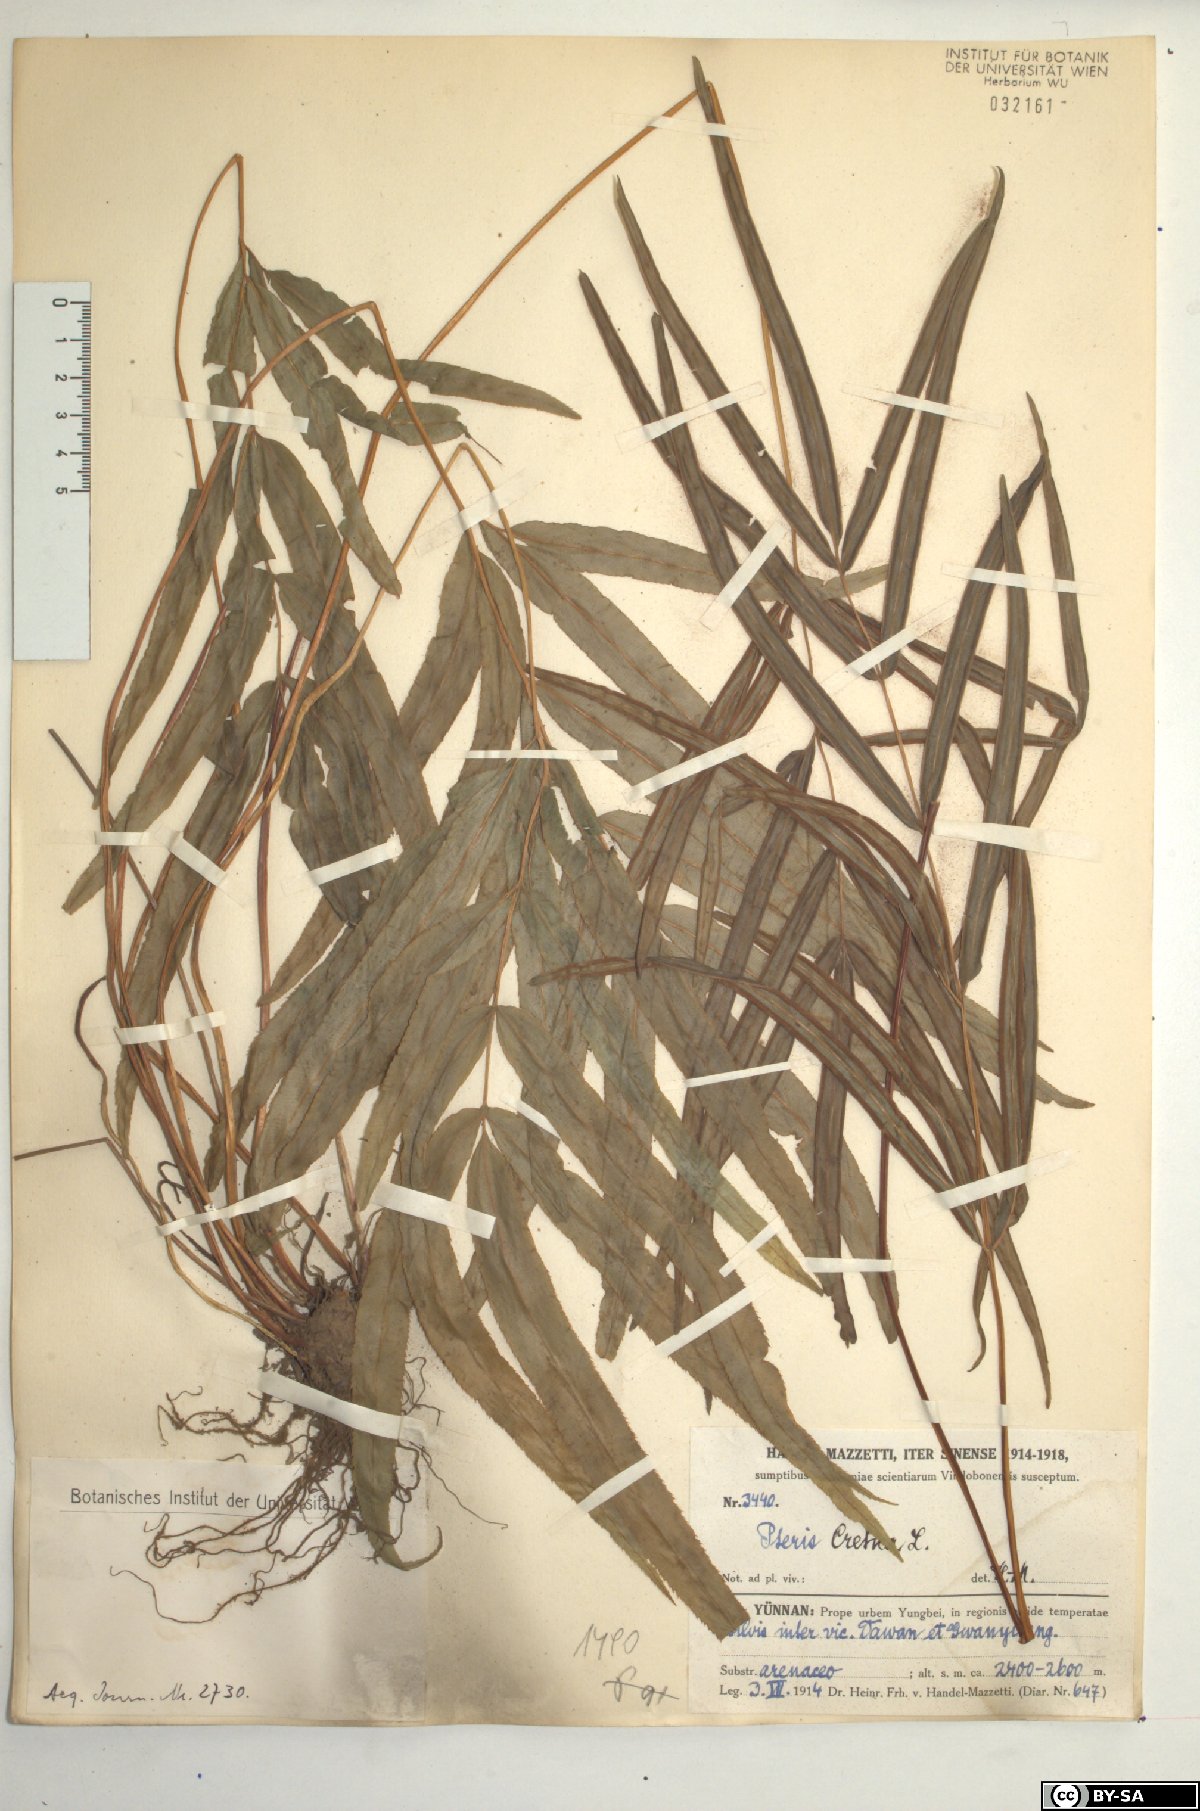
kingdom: Plantae
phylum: Tracheophyta
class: Polypodiopsida
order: Polypodiales
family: Pteridaceae
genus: Pteris
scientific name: Pteris cretica
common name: Ribbon fern
